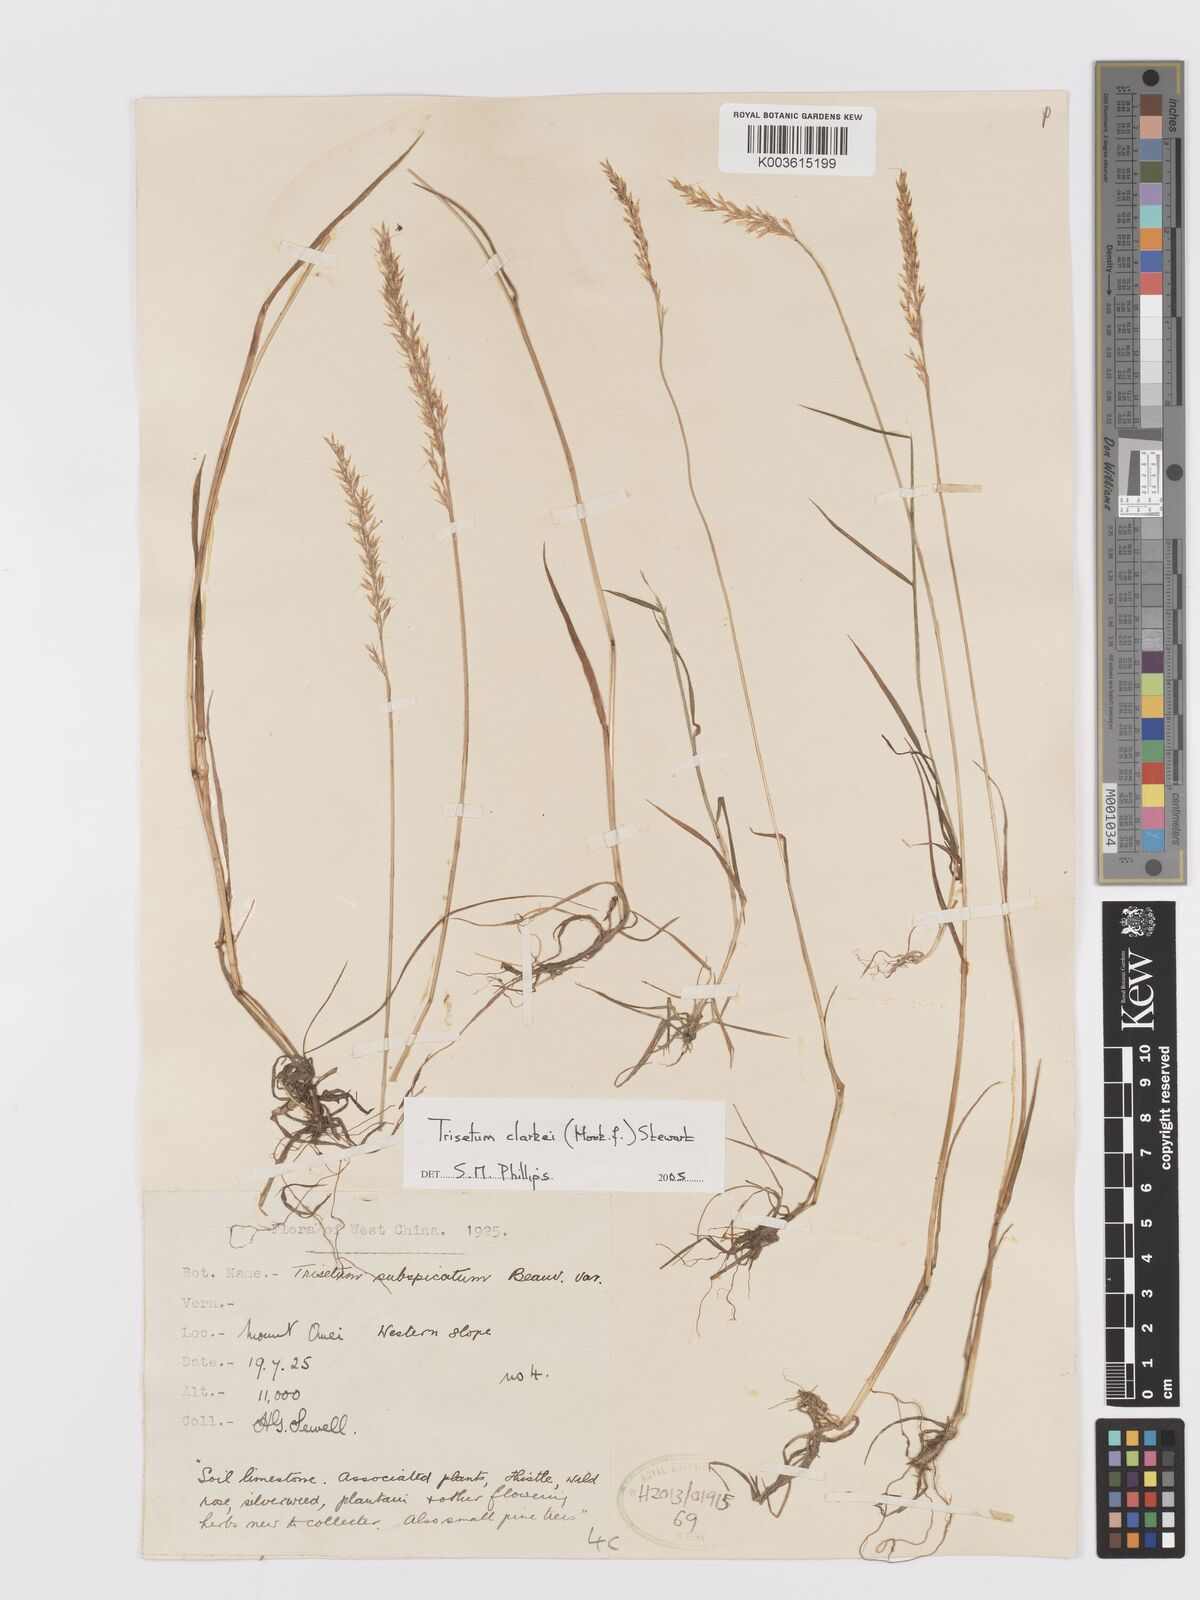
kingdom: Plantae
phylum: Tracheophyta
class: Liliopsida
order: Poales
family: Poaceae
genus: Trisetum
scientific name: Trisetum clarkei
